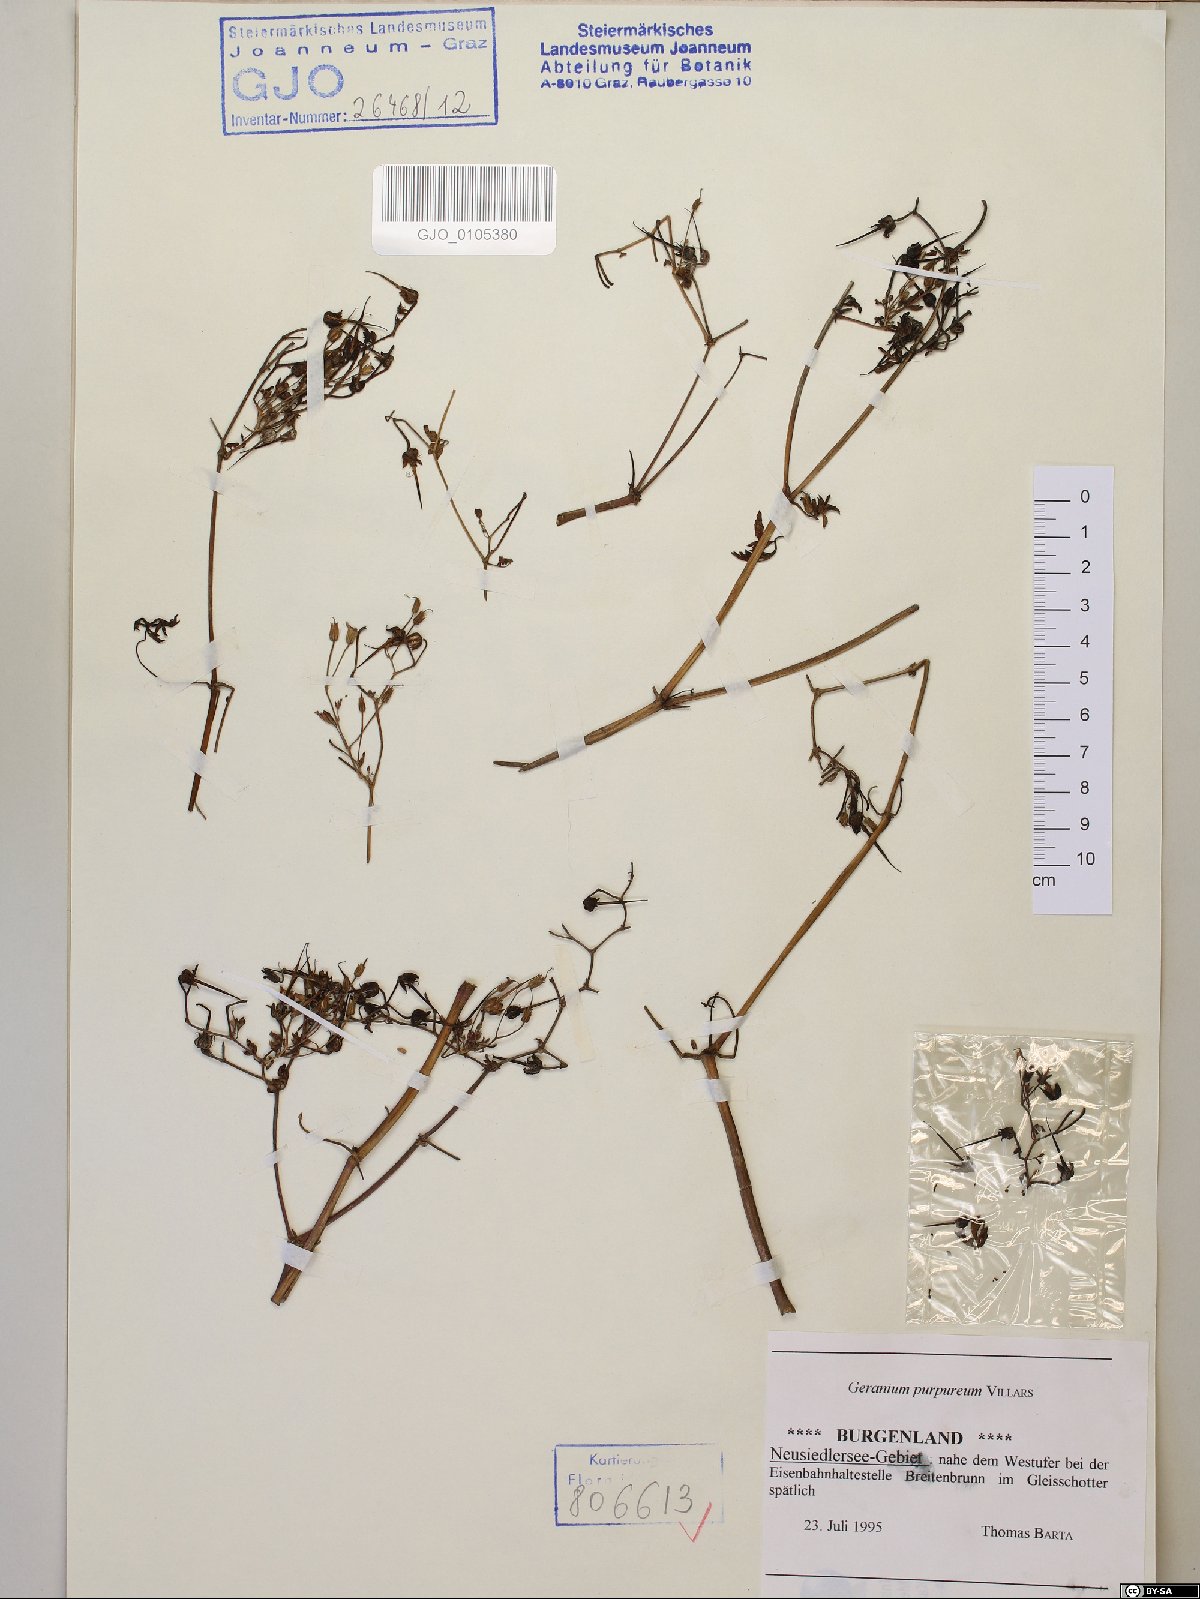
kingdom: Plantae
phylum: Tracheophyta
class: Magnoliopsida
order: Geraniales
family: Geraniaceae
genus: Geranium
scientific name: Geranium purpureum
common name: Little-robin
